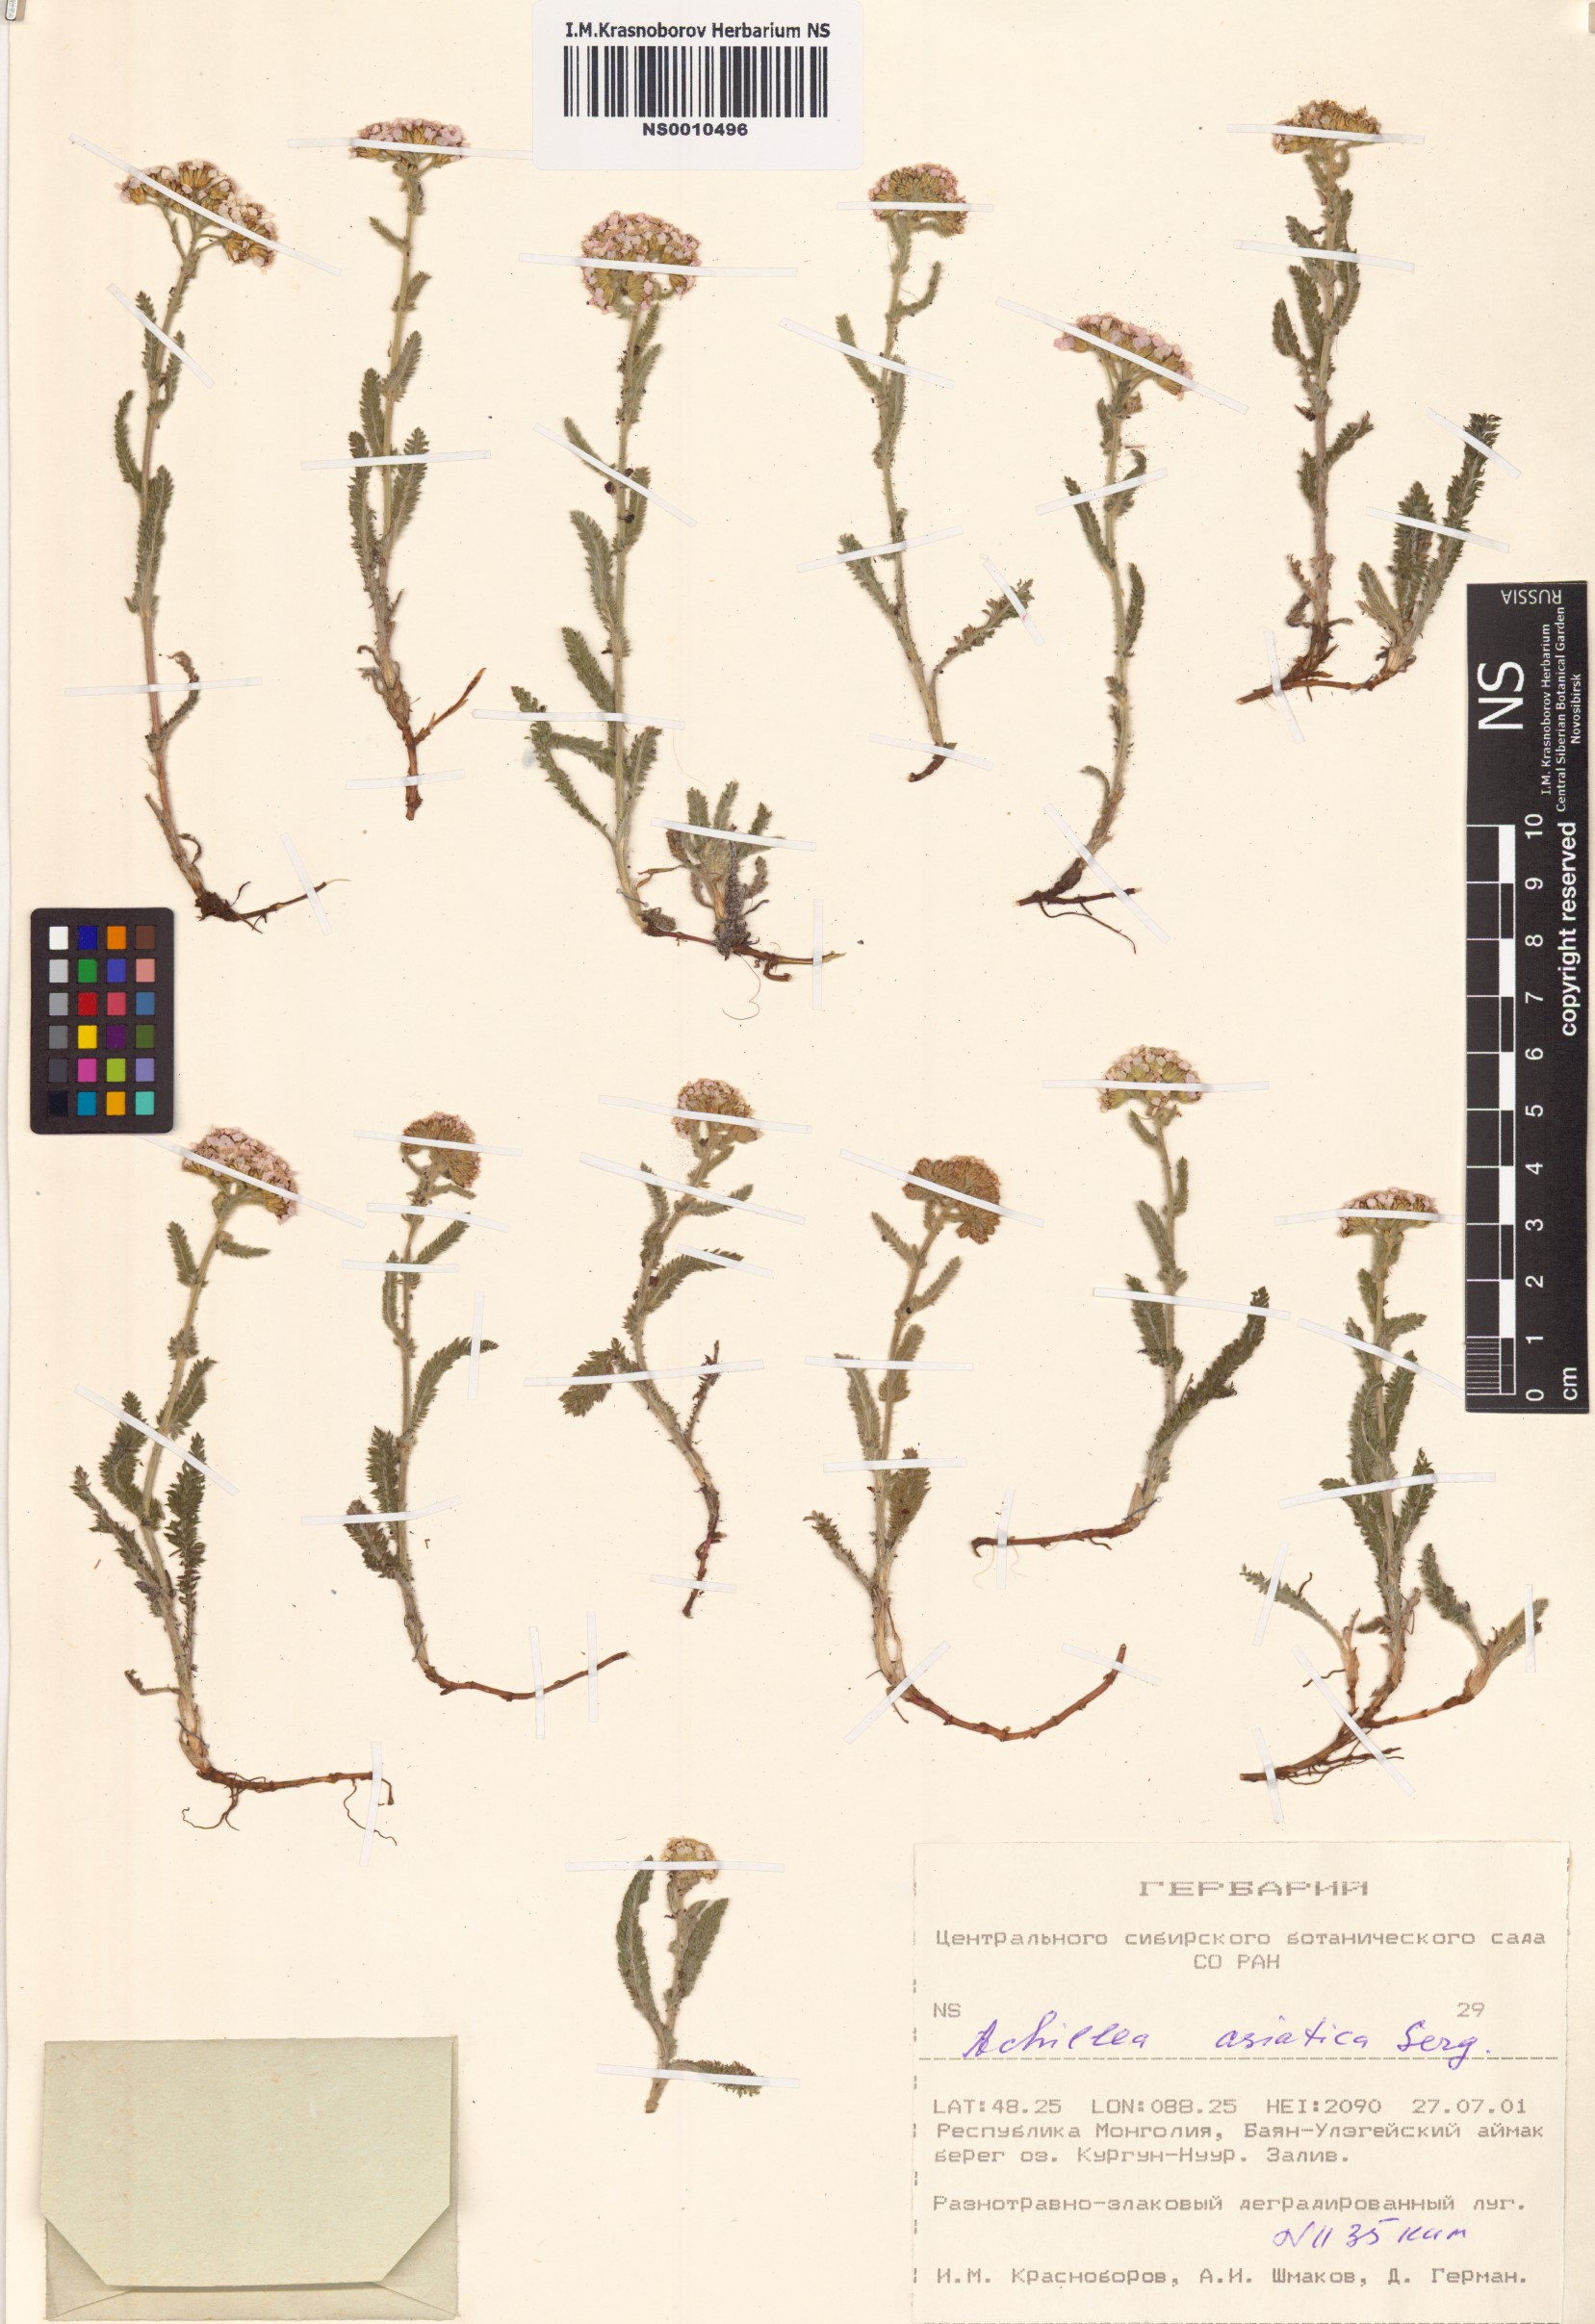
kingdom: Plantae
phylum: Tracheophyta
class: Magnoliopsida
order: Asterales
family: Asteraceae
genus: Achillea
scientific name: Achillea asiatica
